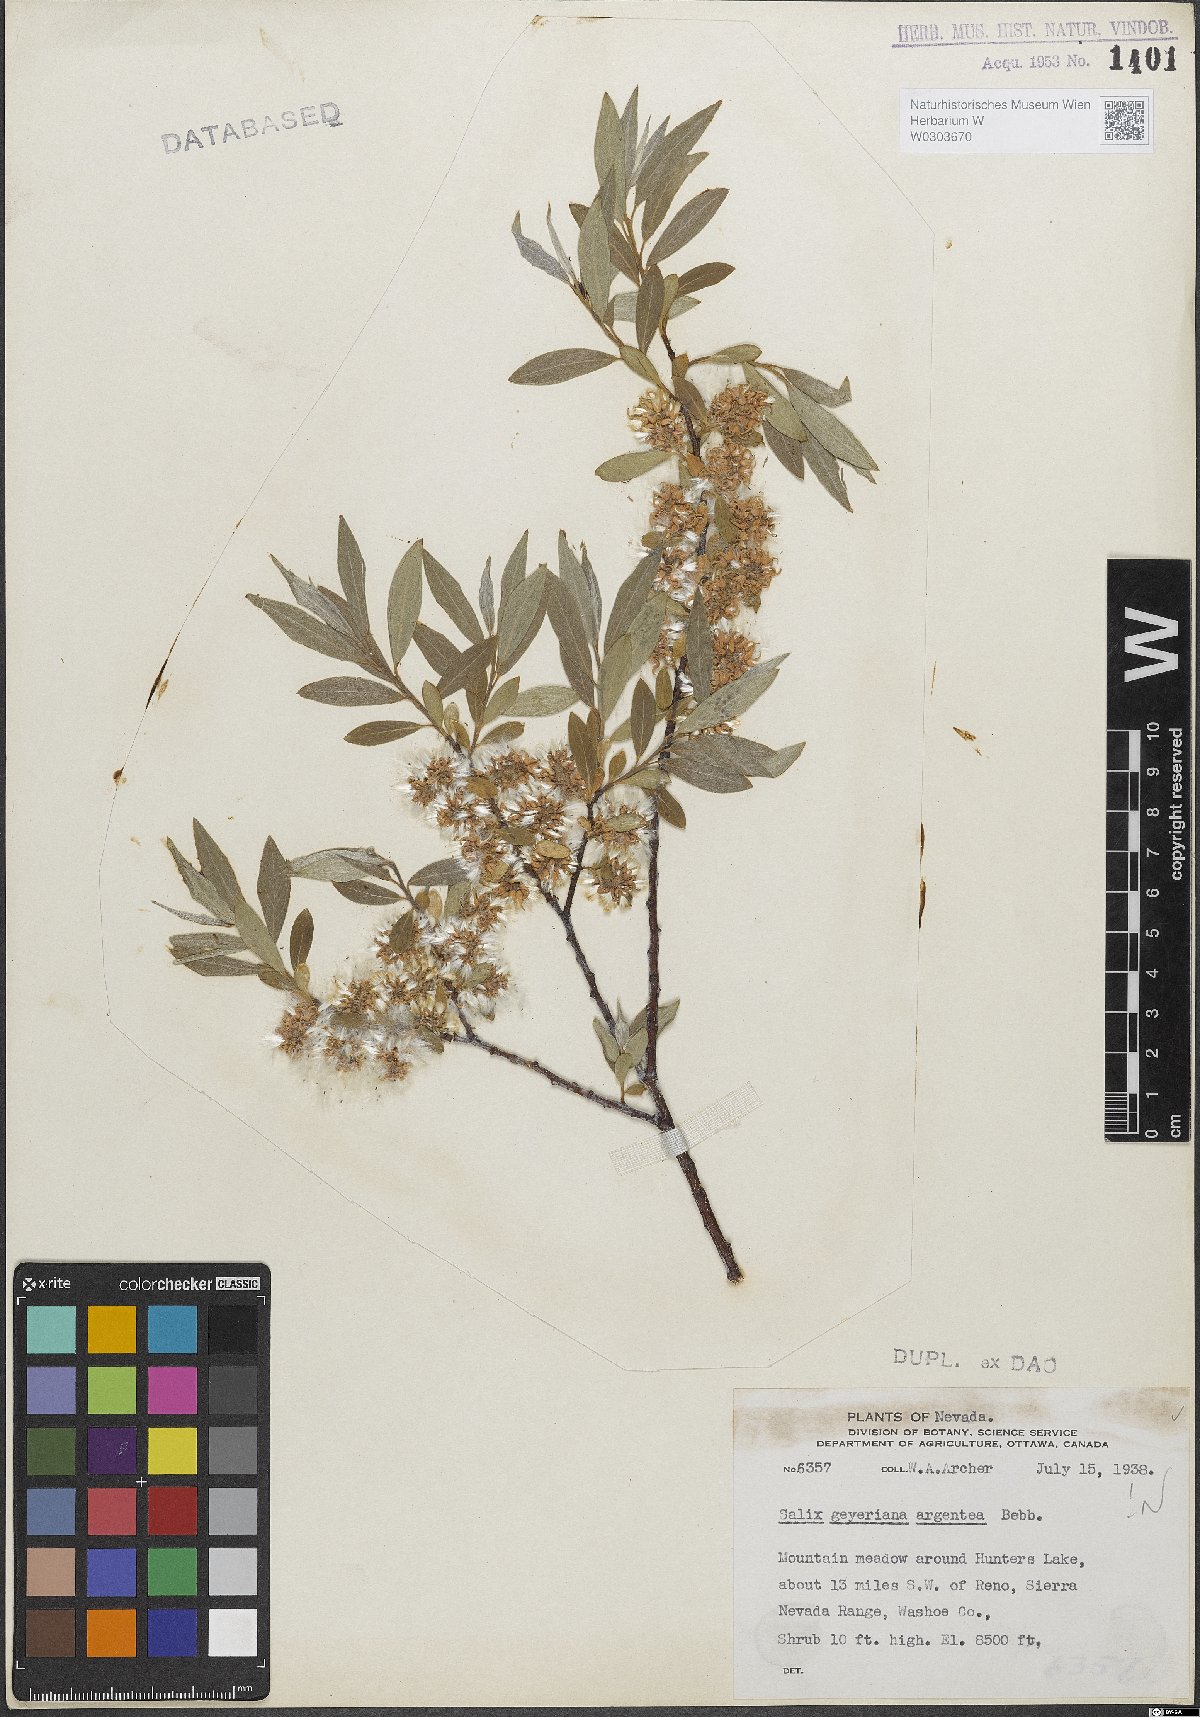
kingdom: Plantae
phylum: Tracheophyta
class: Magnoliopsida
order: Malpighiales
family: Salicaceae
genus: Salix
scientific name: Salix geyeriana
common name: Geyer's willow
